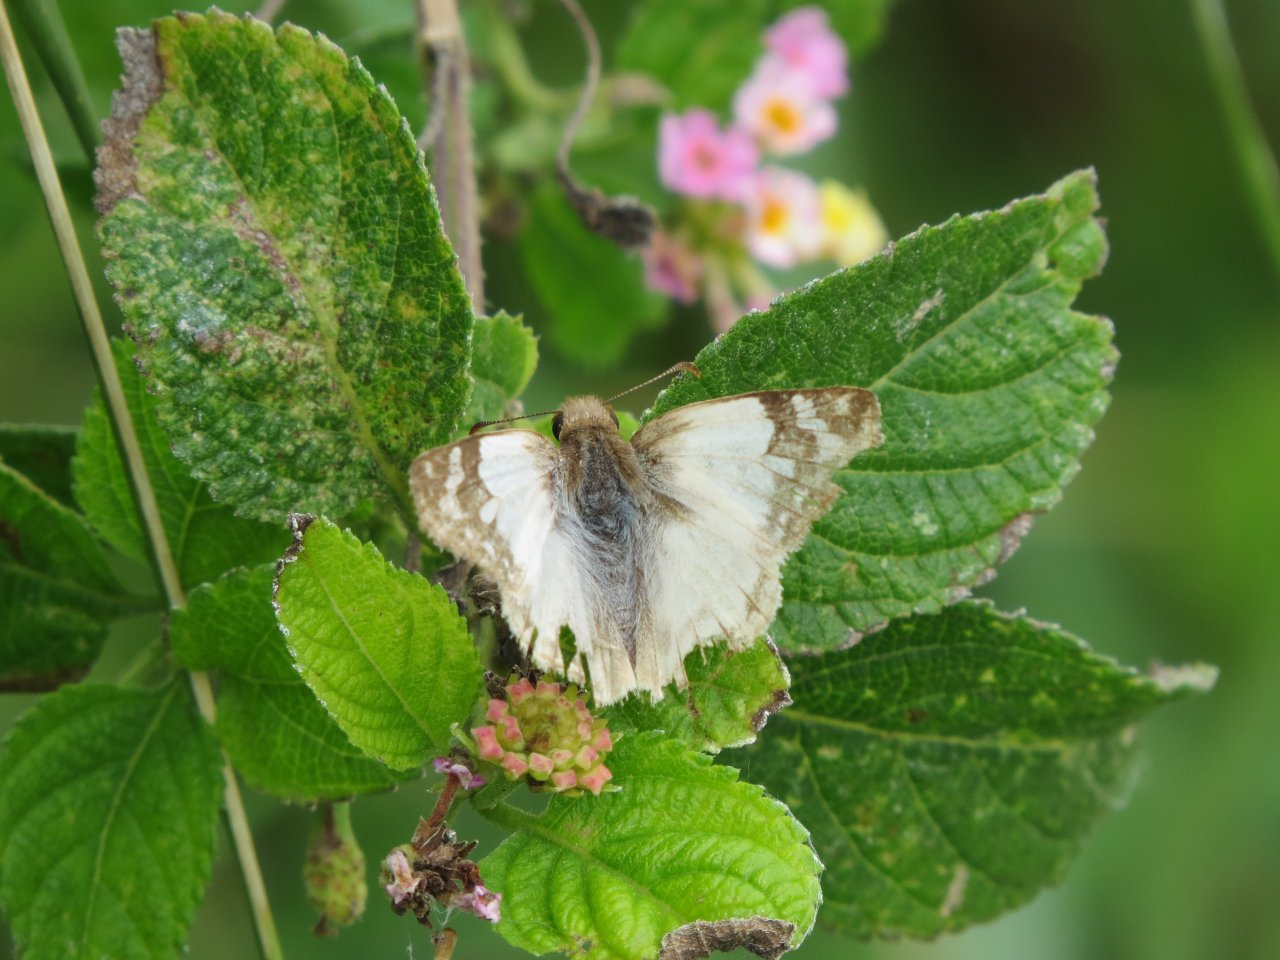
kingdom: Animalia
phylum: Arthropoda
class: Insecta
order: Lepidoptera
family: Hesperiidae
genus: Heliopetes
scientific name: Heliopetes laviana
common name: Laviana White-Skipper
